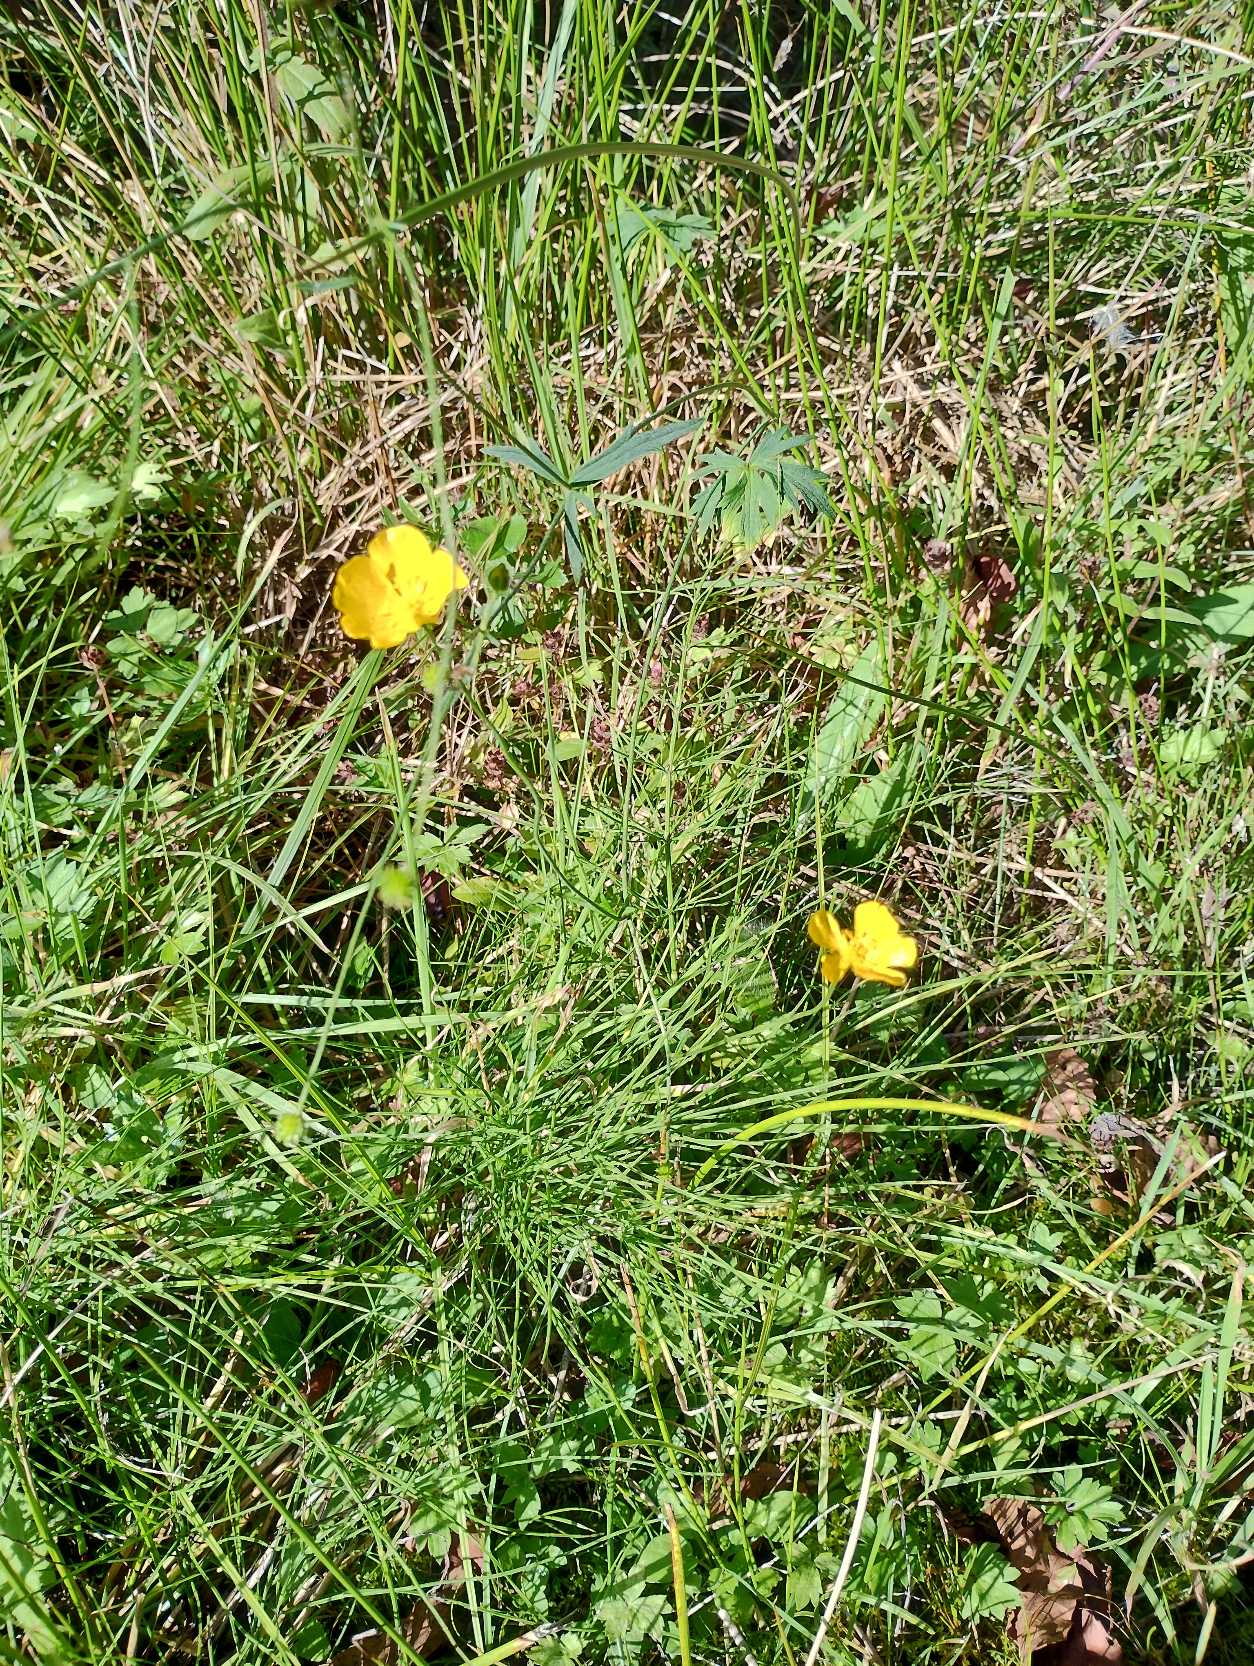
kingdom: Plantae
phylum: Tracheophyta
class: Magnoliopsida
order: Ranunculales
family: Ranunculaceae
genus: Ranunculus
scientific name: Ranunculus acris
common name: Bidende ranunkel
